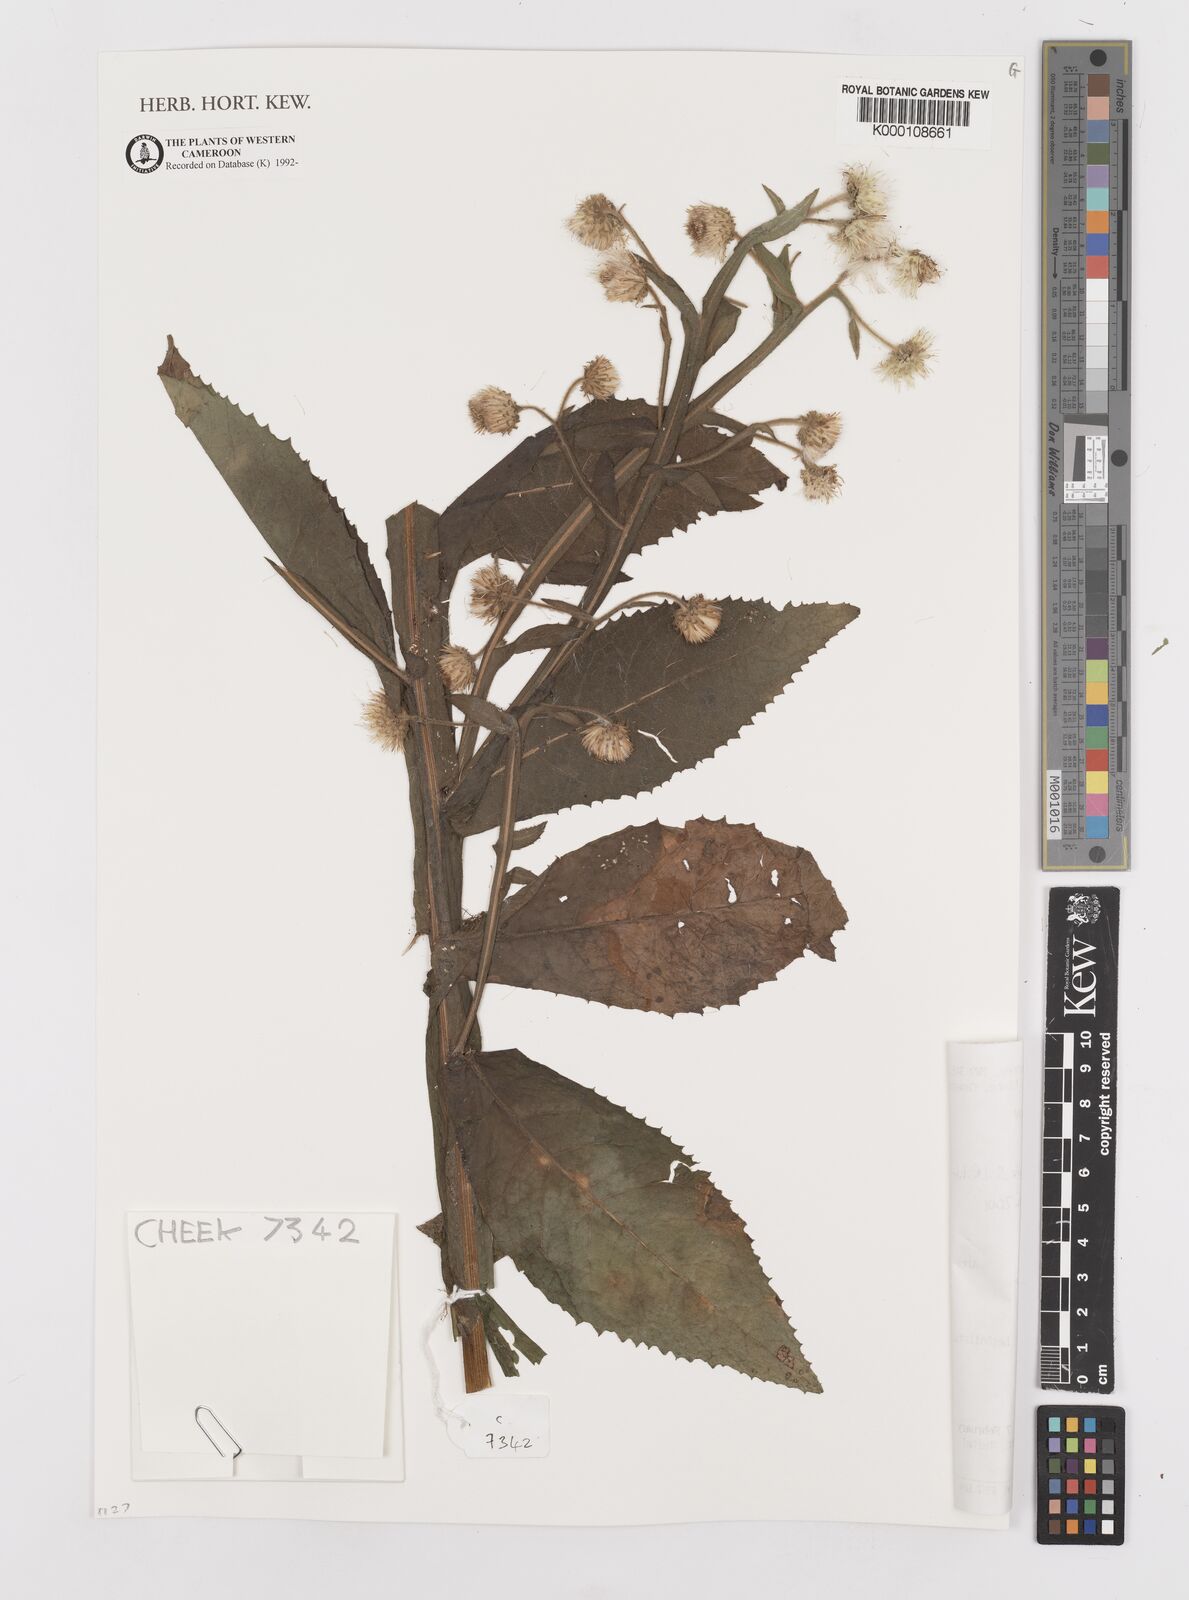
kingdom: Plantae
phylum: Tracheophyta
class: Magnoliopsida
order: Asterales
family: Asteraceae
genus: Laggera
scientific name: Laggera crispata
